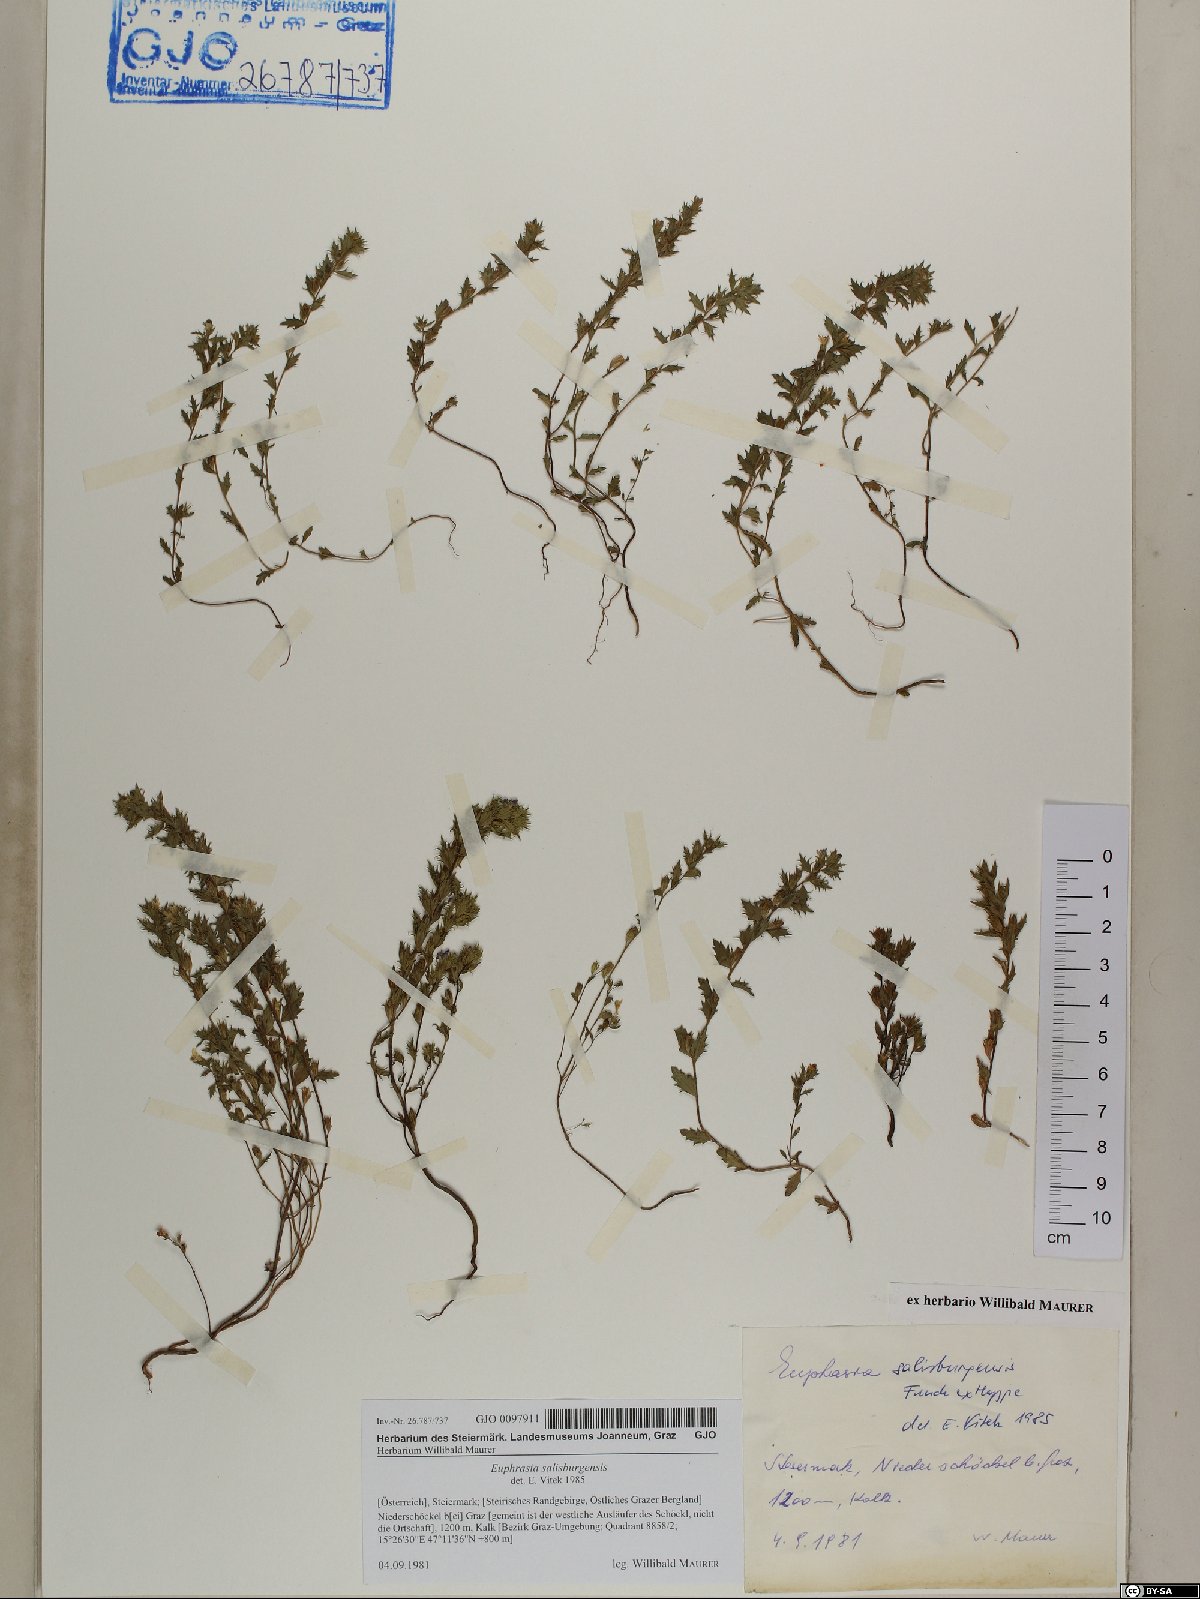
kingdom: Plantae
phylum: Tracheophyta
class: Magnoliopsida
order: Lamiales
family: Orobanchaceae
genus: Euphrasia
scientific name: Euphrasia salisburgensis
